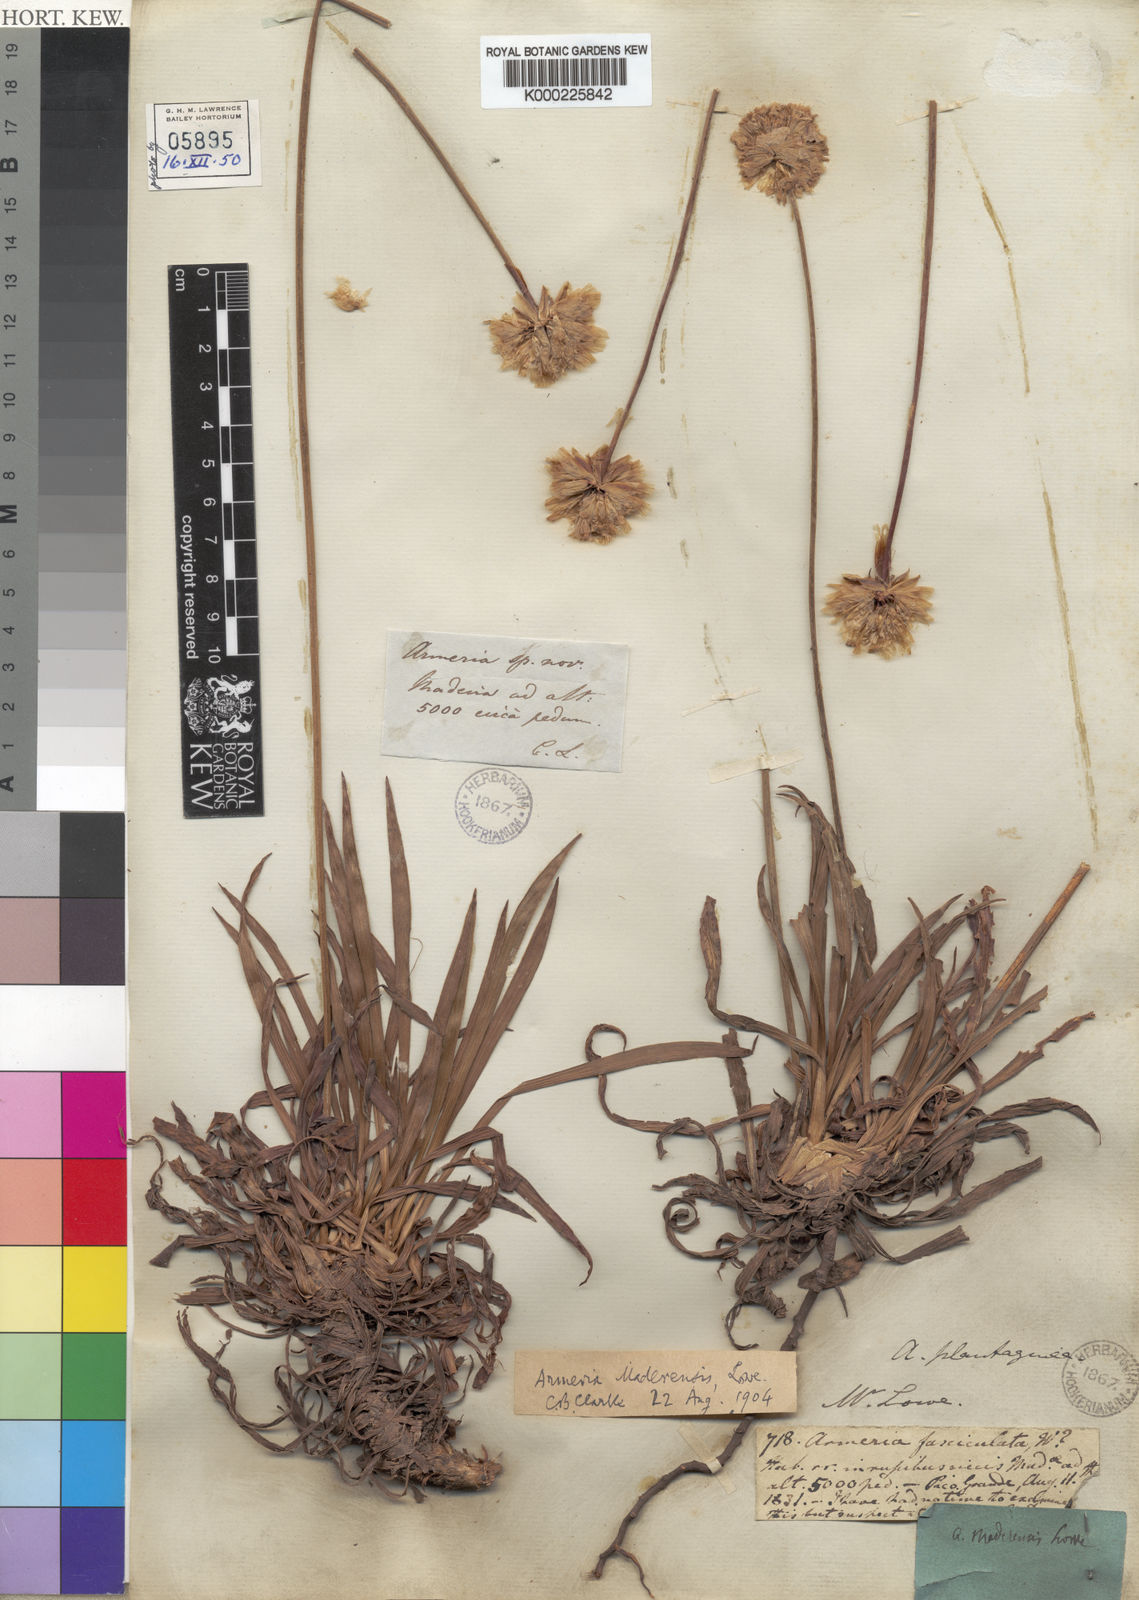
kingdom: Plantae
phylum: Tracheophyta
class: Magnoliopsida
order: Caryophyllales
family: Plumbaginaceae
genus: Armeria
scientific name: Armeria maderensis
